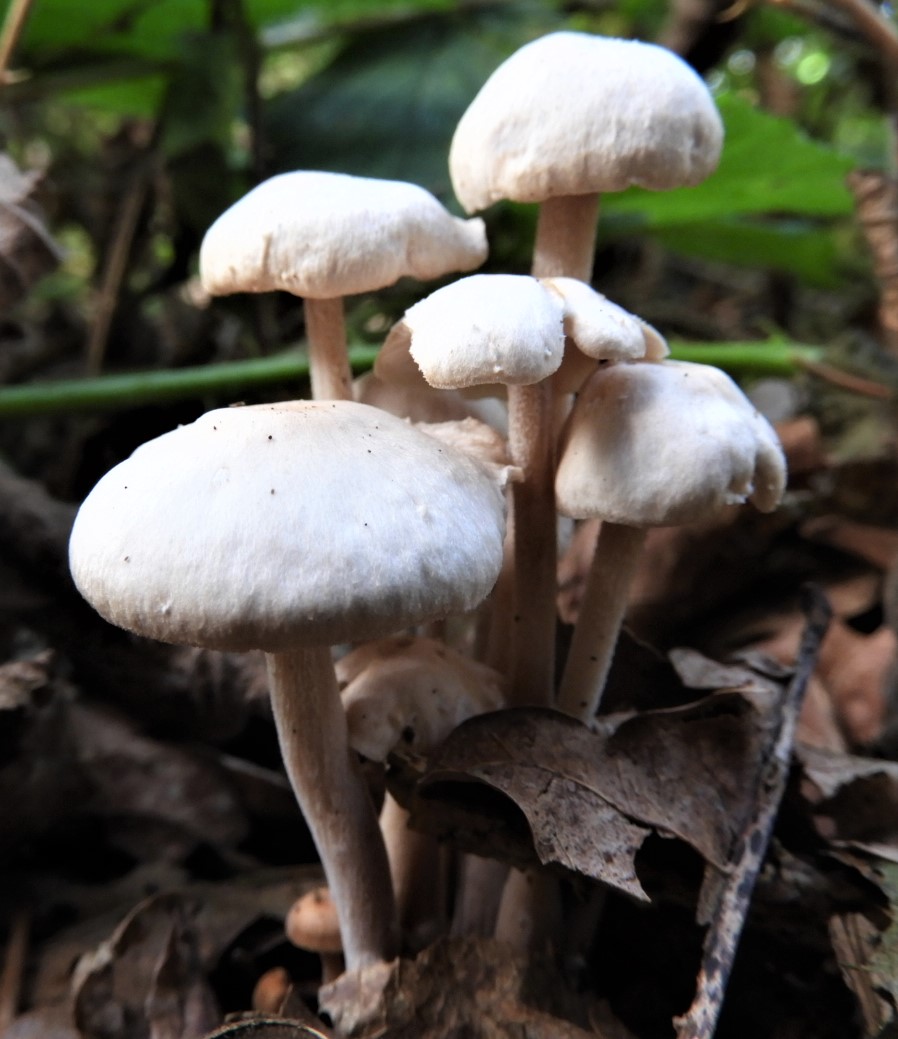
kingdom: Fungi
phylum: Basidiomycota
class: Agaricomycetes
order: Agaricales
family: Omphalotaceae
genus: Collybiopsis
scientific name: Collybiopsis confluens
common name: knippe-fladhat
